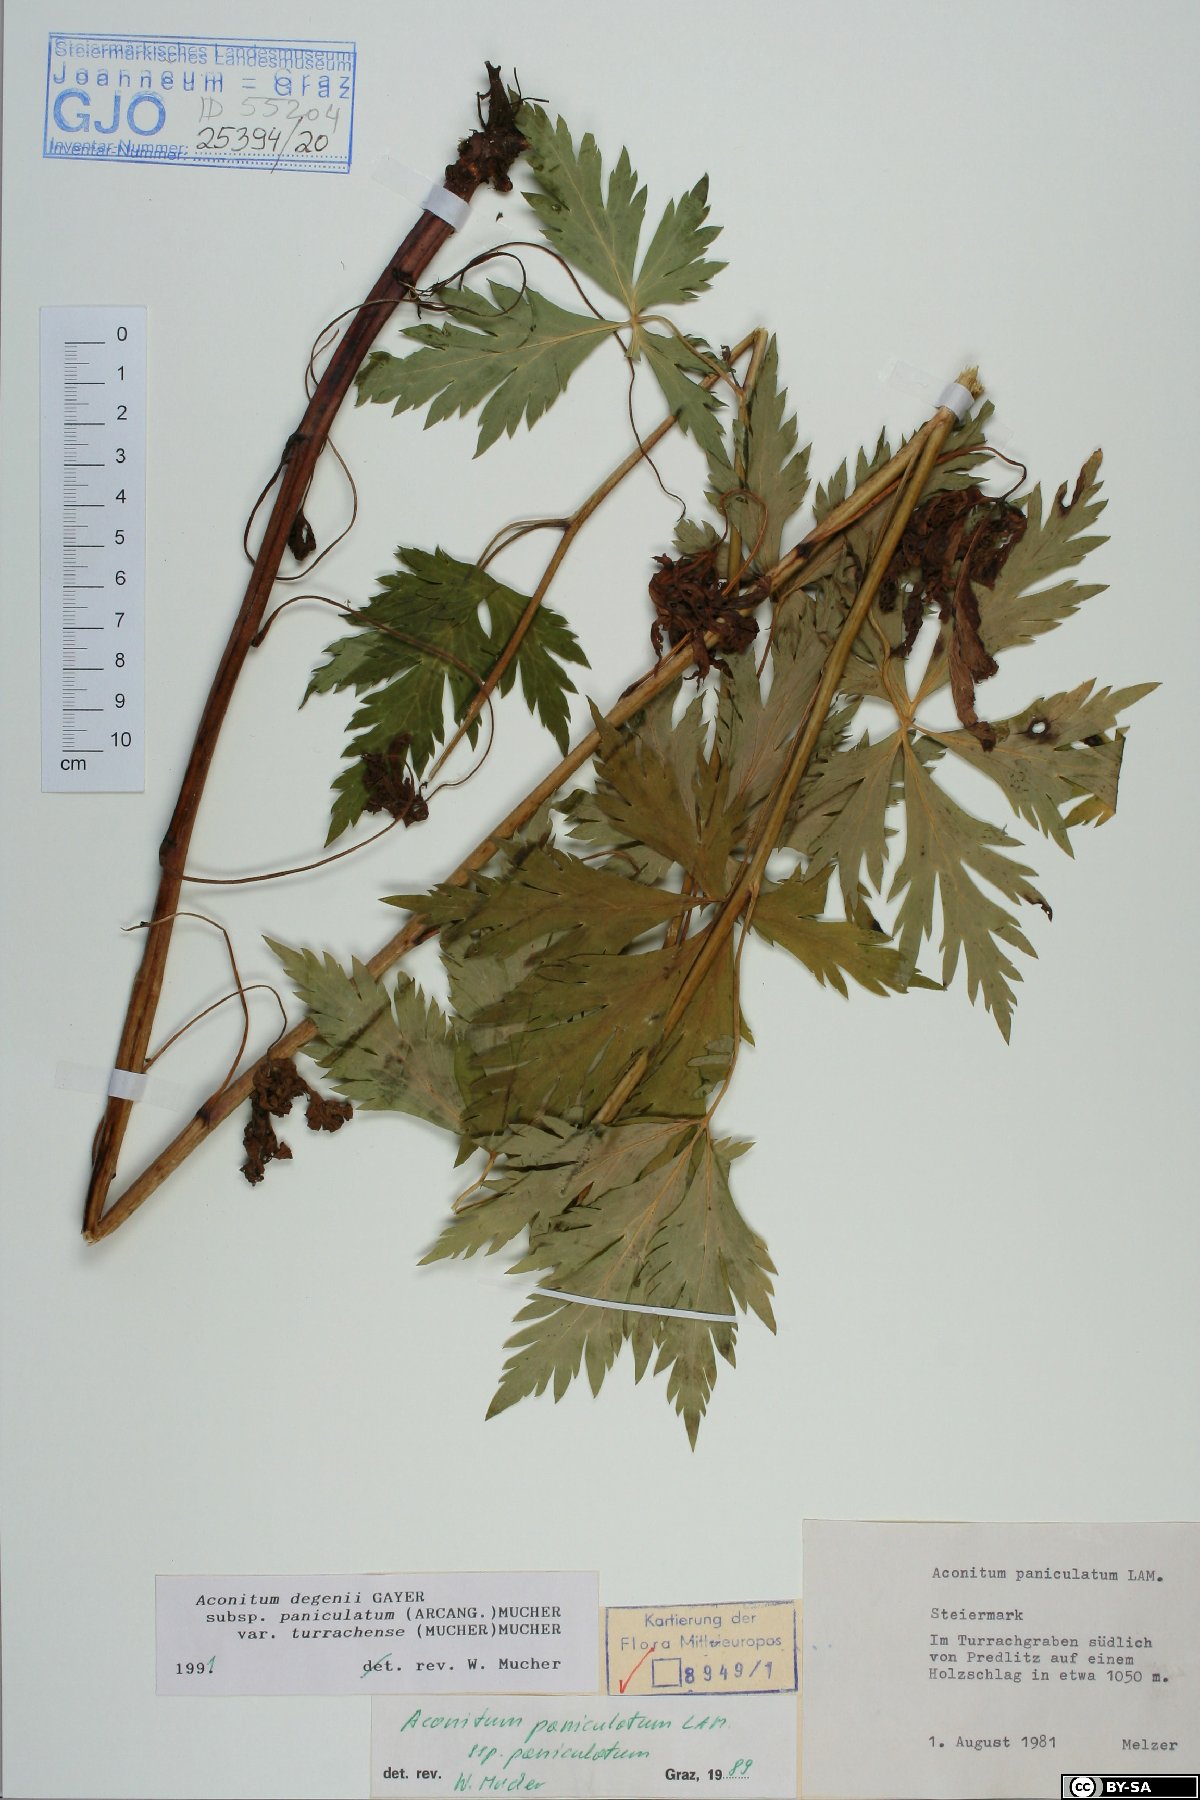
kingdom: Plantae
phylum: Tracheophyta
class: Magnoliopsida
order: Ranunculales
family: Ranunculaceae
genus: Aconitum
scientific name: Aconitum degenii
